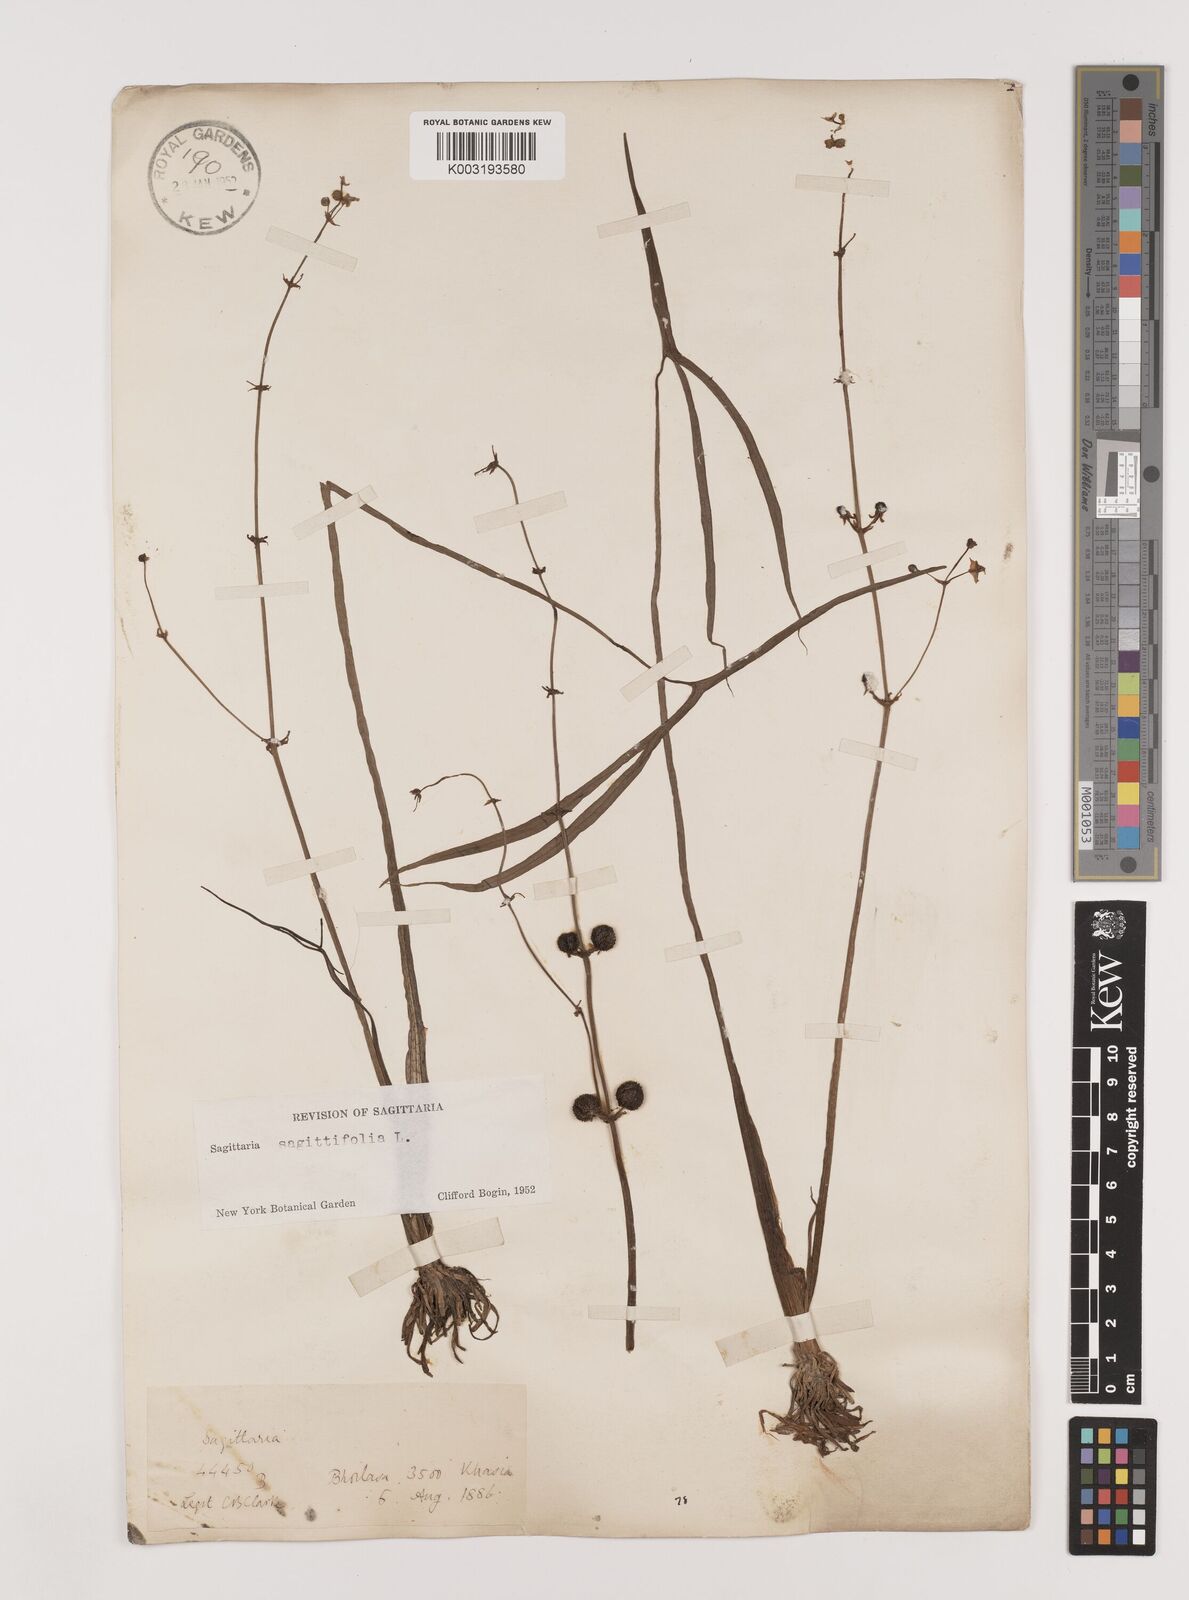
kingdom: Plantae
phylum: Tracheophyta
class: Liliopsida
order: Alismatales
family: Alismataceae
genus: Sagittaria
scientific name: Sagittaria sagittifolia
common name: Arrowhead
